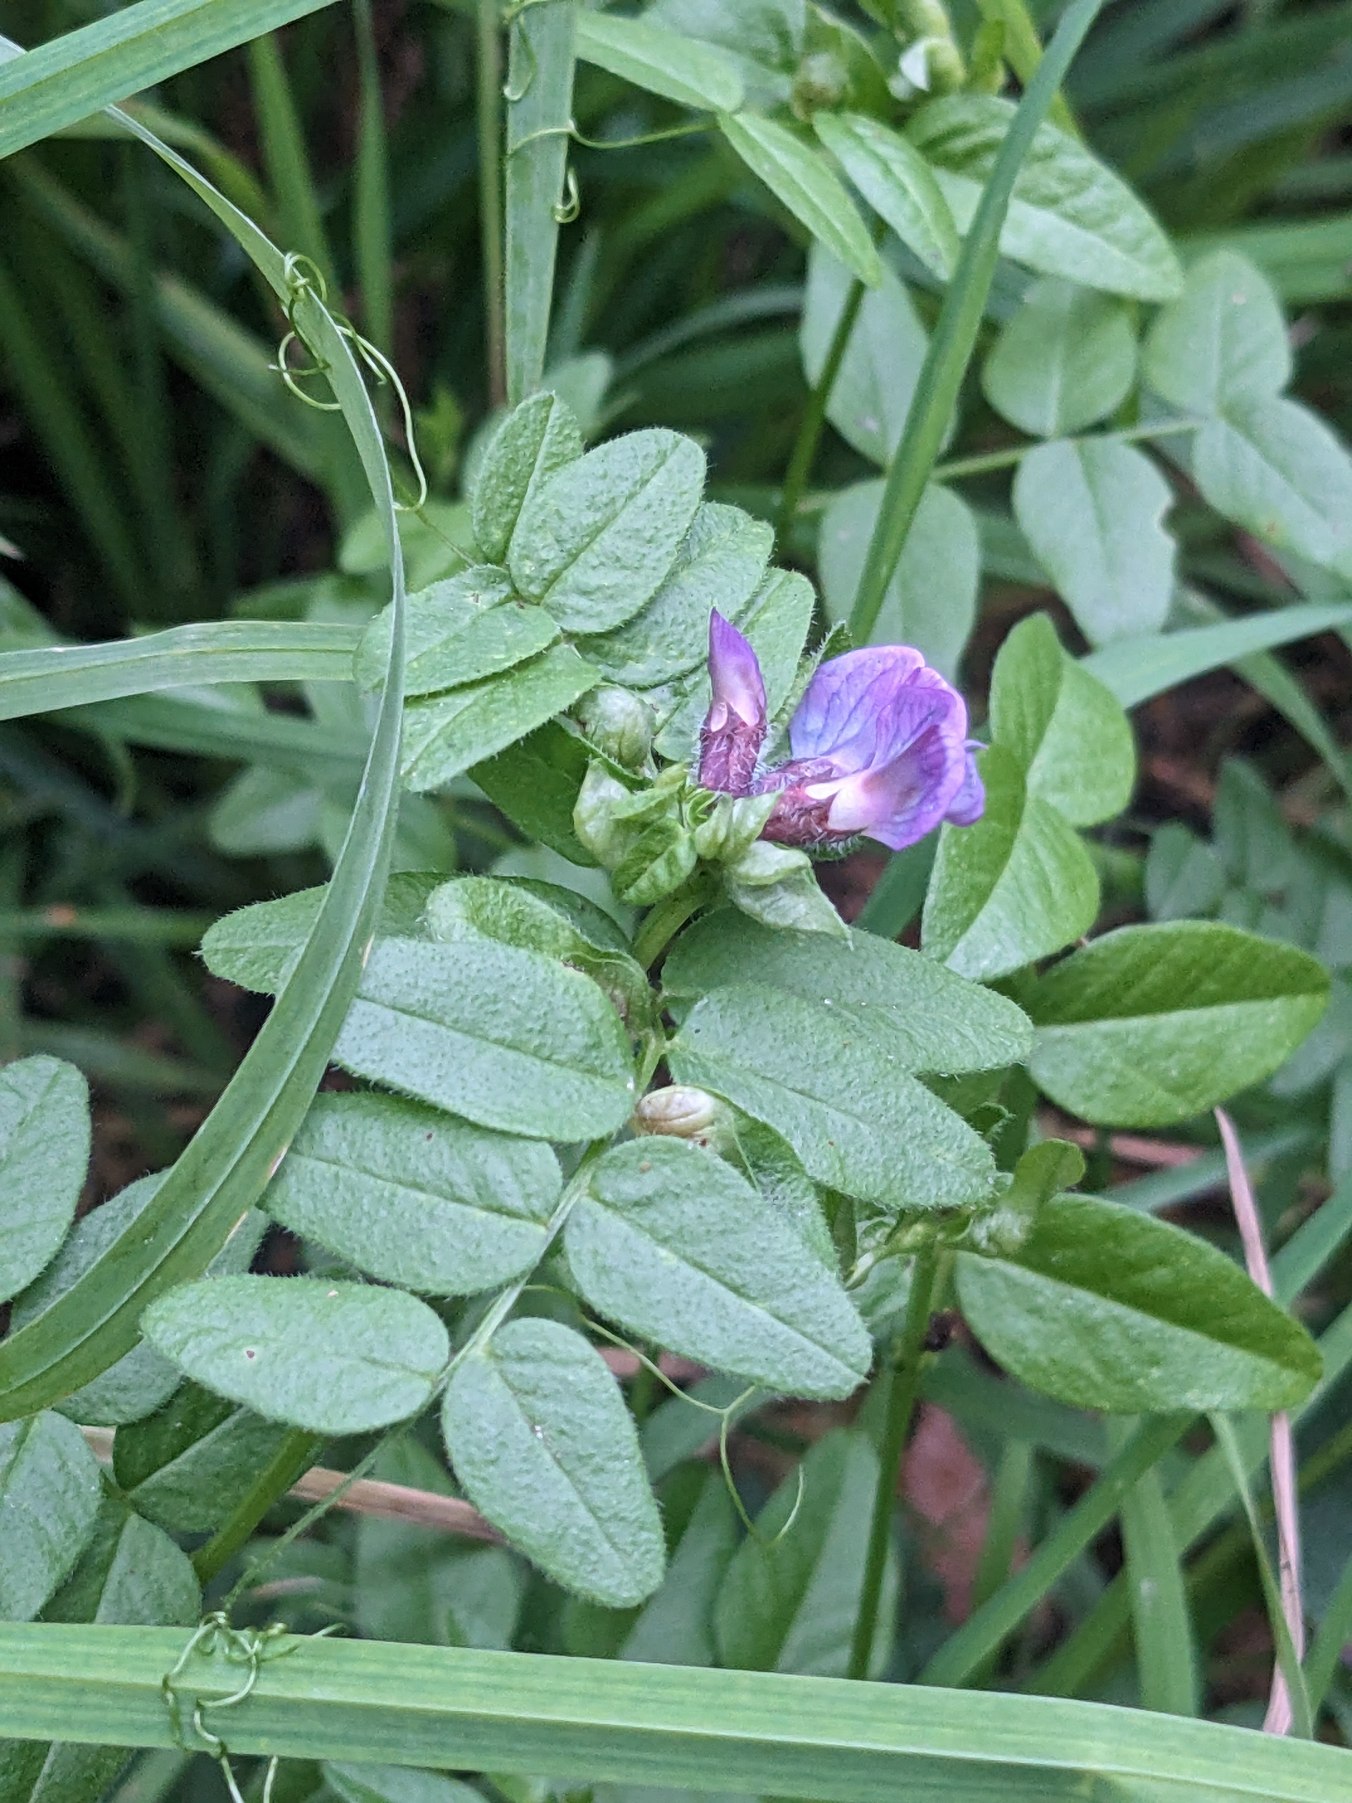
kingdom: Plantae
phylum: Tracheophyta
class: Magnoliopsida
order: Fabales
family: Fabaceae
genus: Vicia
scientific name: Vicia sepium
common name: Gærde-vikke
